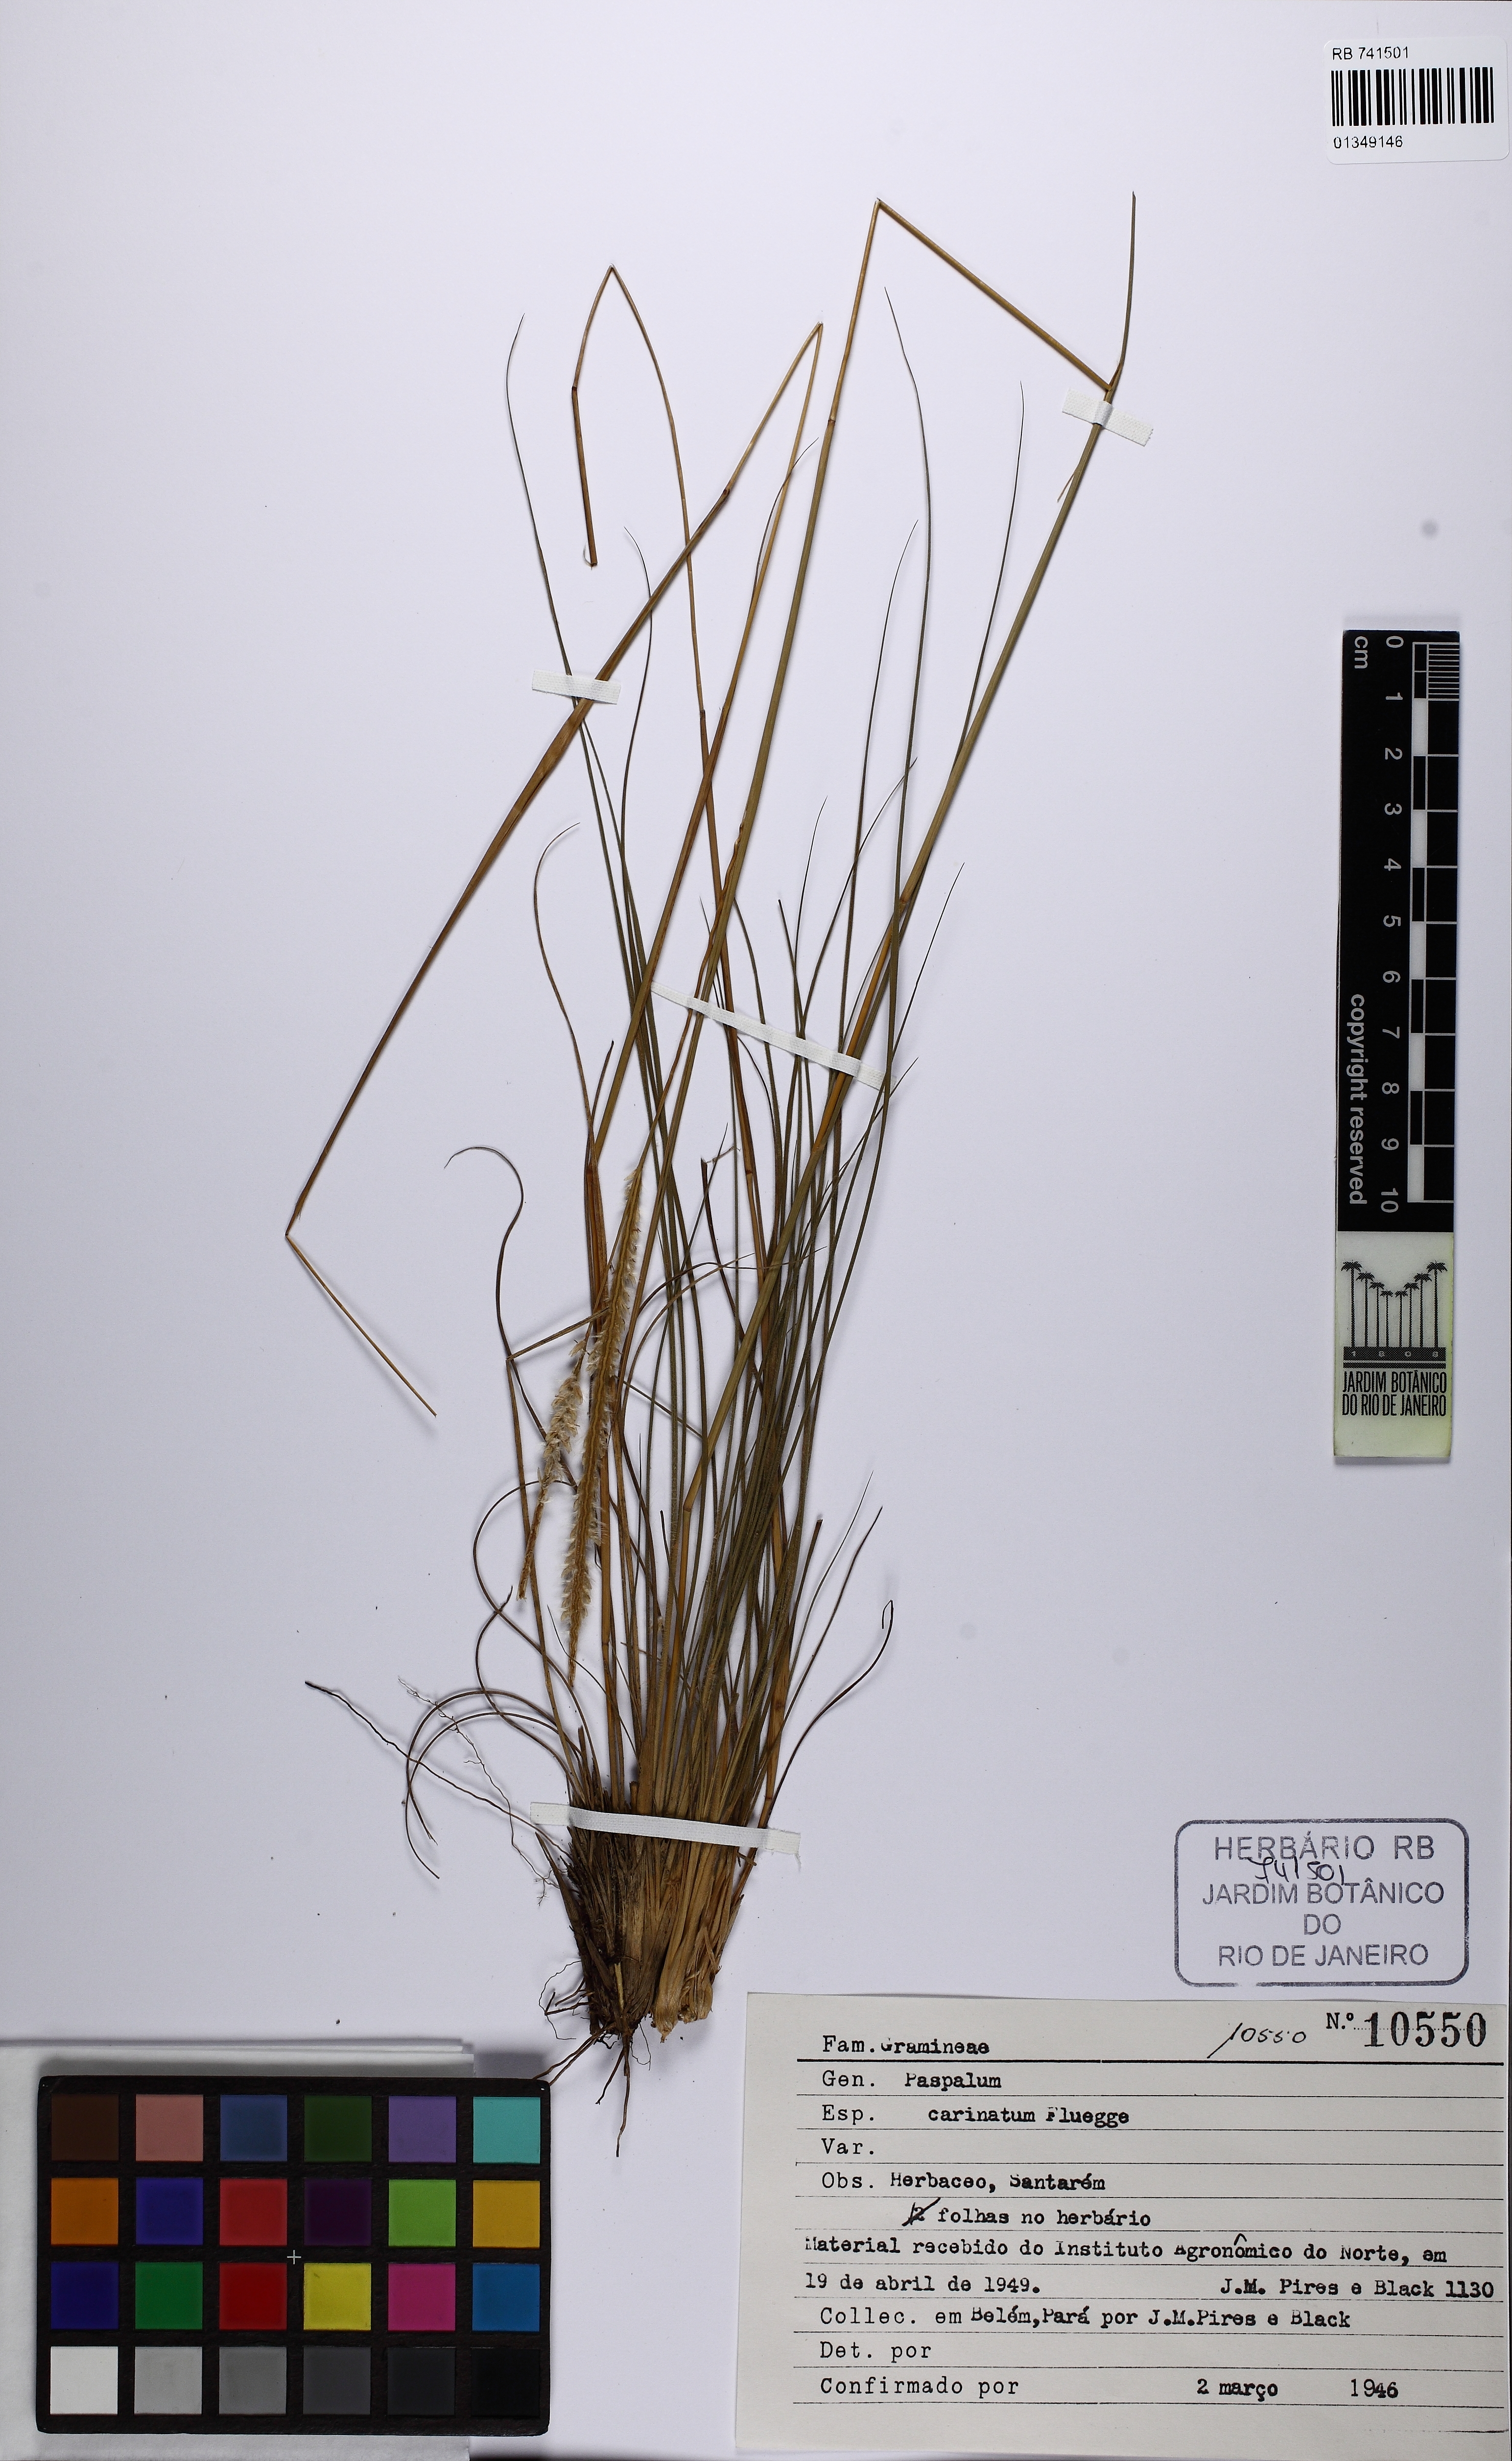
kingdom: Plantae
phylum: Tracheophyta
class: Liliopsida
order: Poales
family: Poaceae
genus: Paspalum
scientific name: Paspalum carinatum
